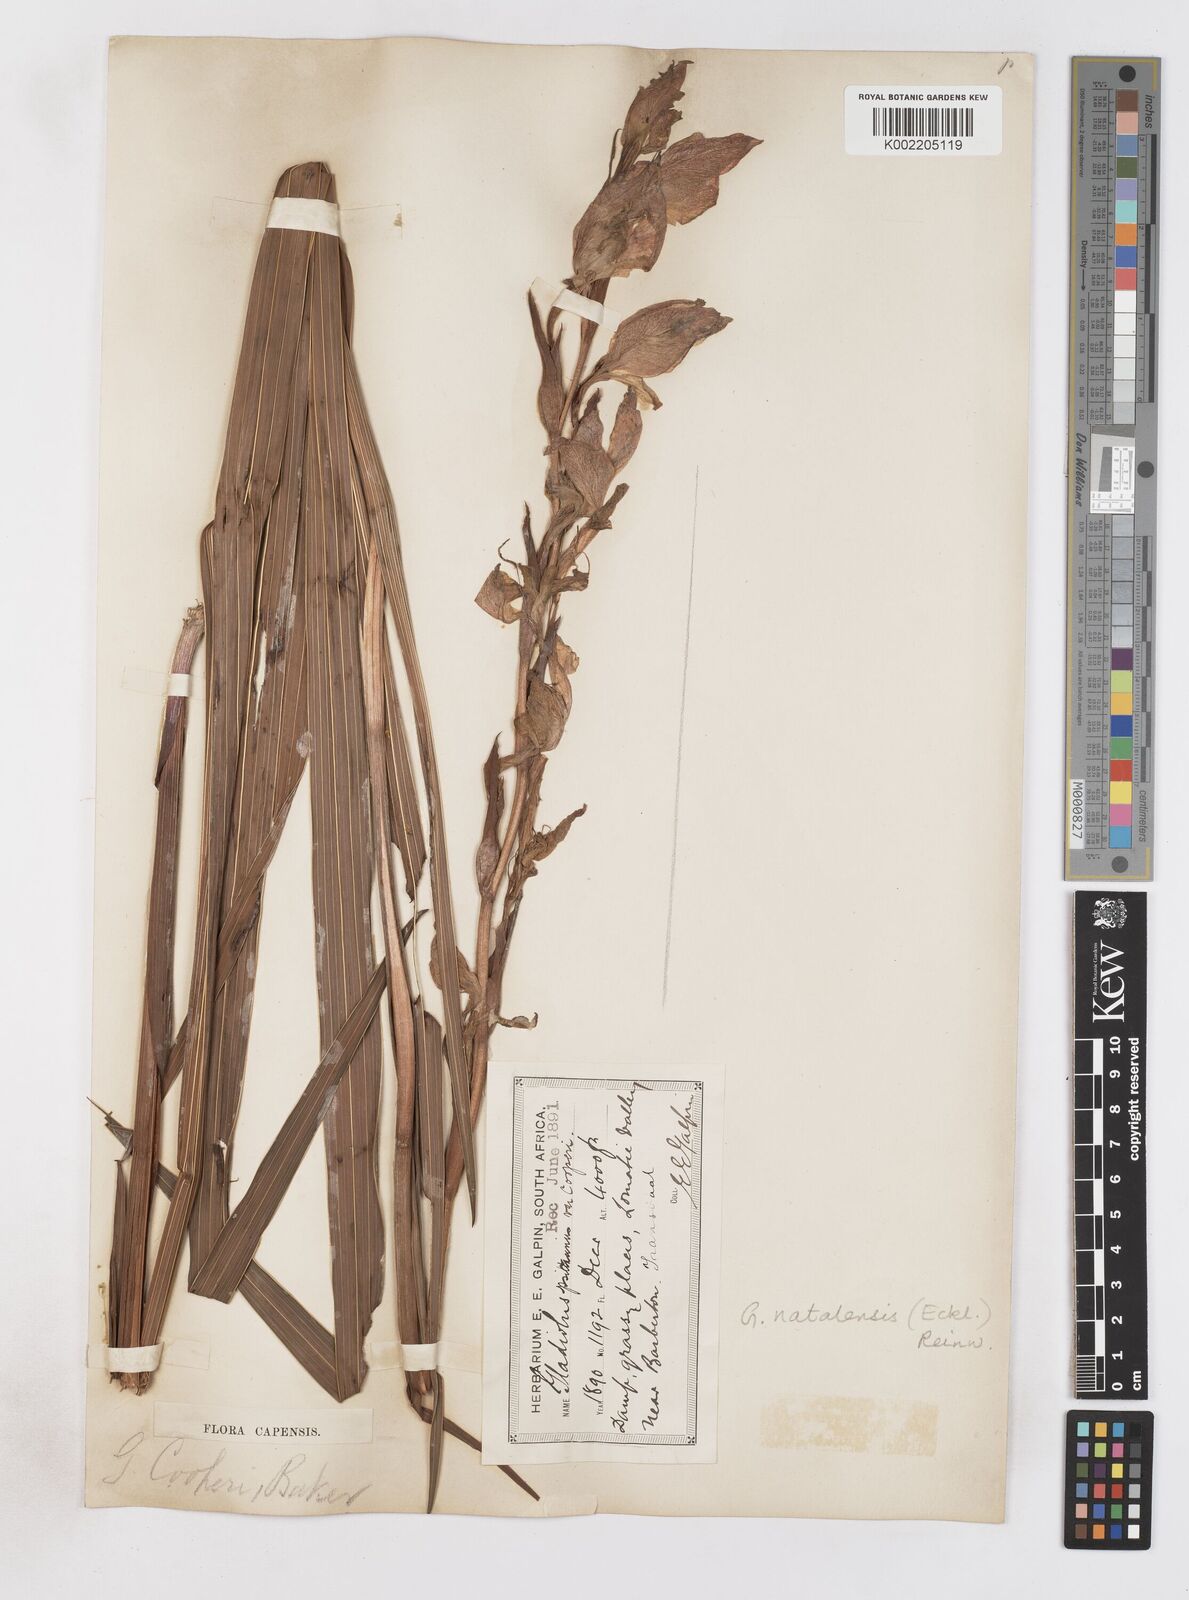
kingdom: Plantae
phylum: Tracheophyta
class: Liliopsida
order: Asparagales
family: Iridaceae
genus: Gladiolus
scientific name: Gladiolus dalenii
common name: Cornflag
